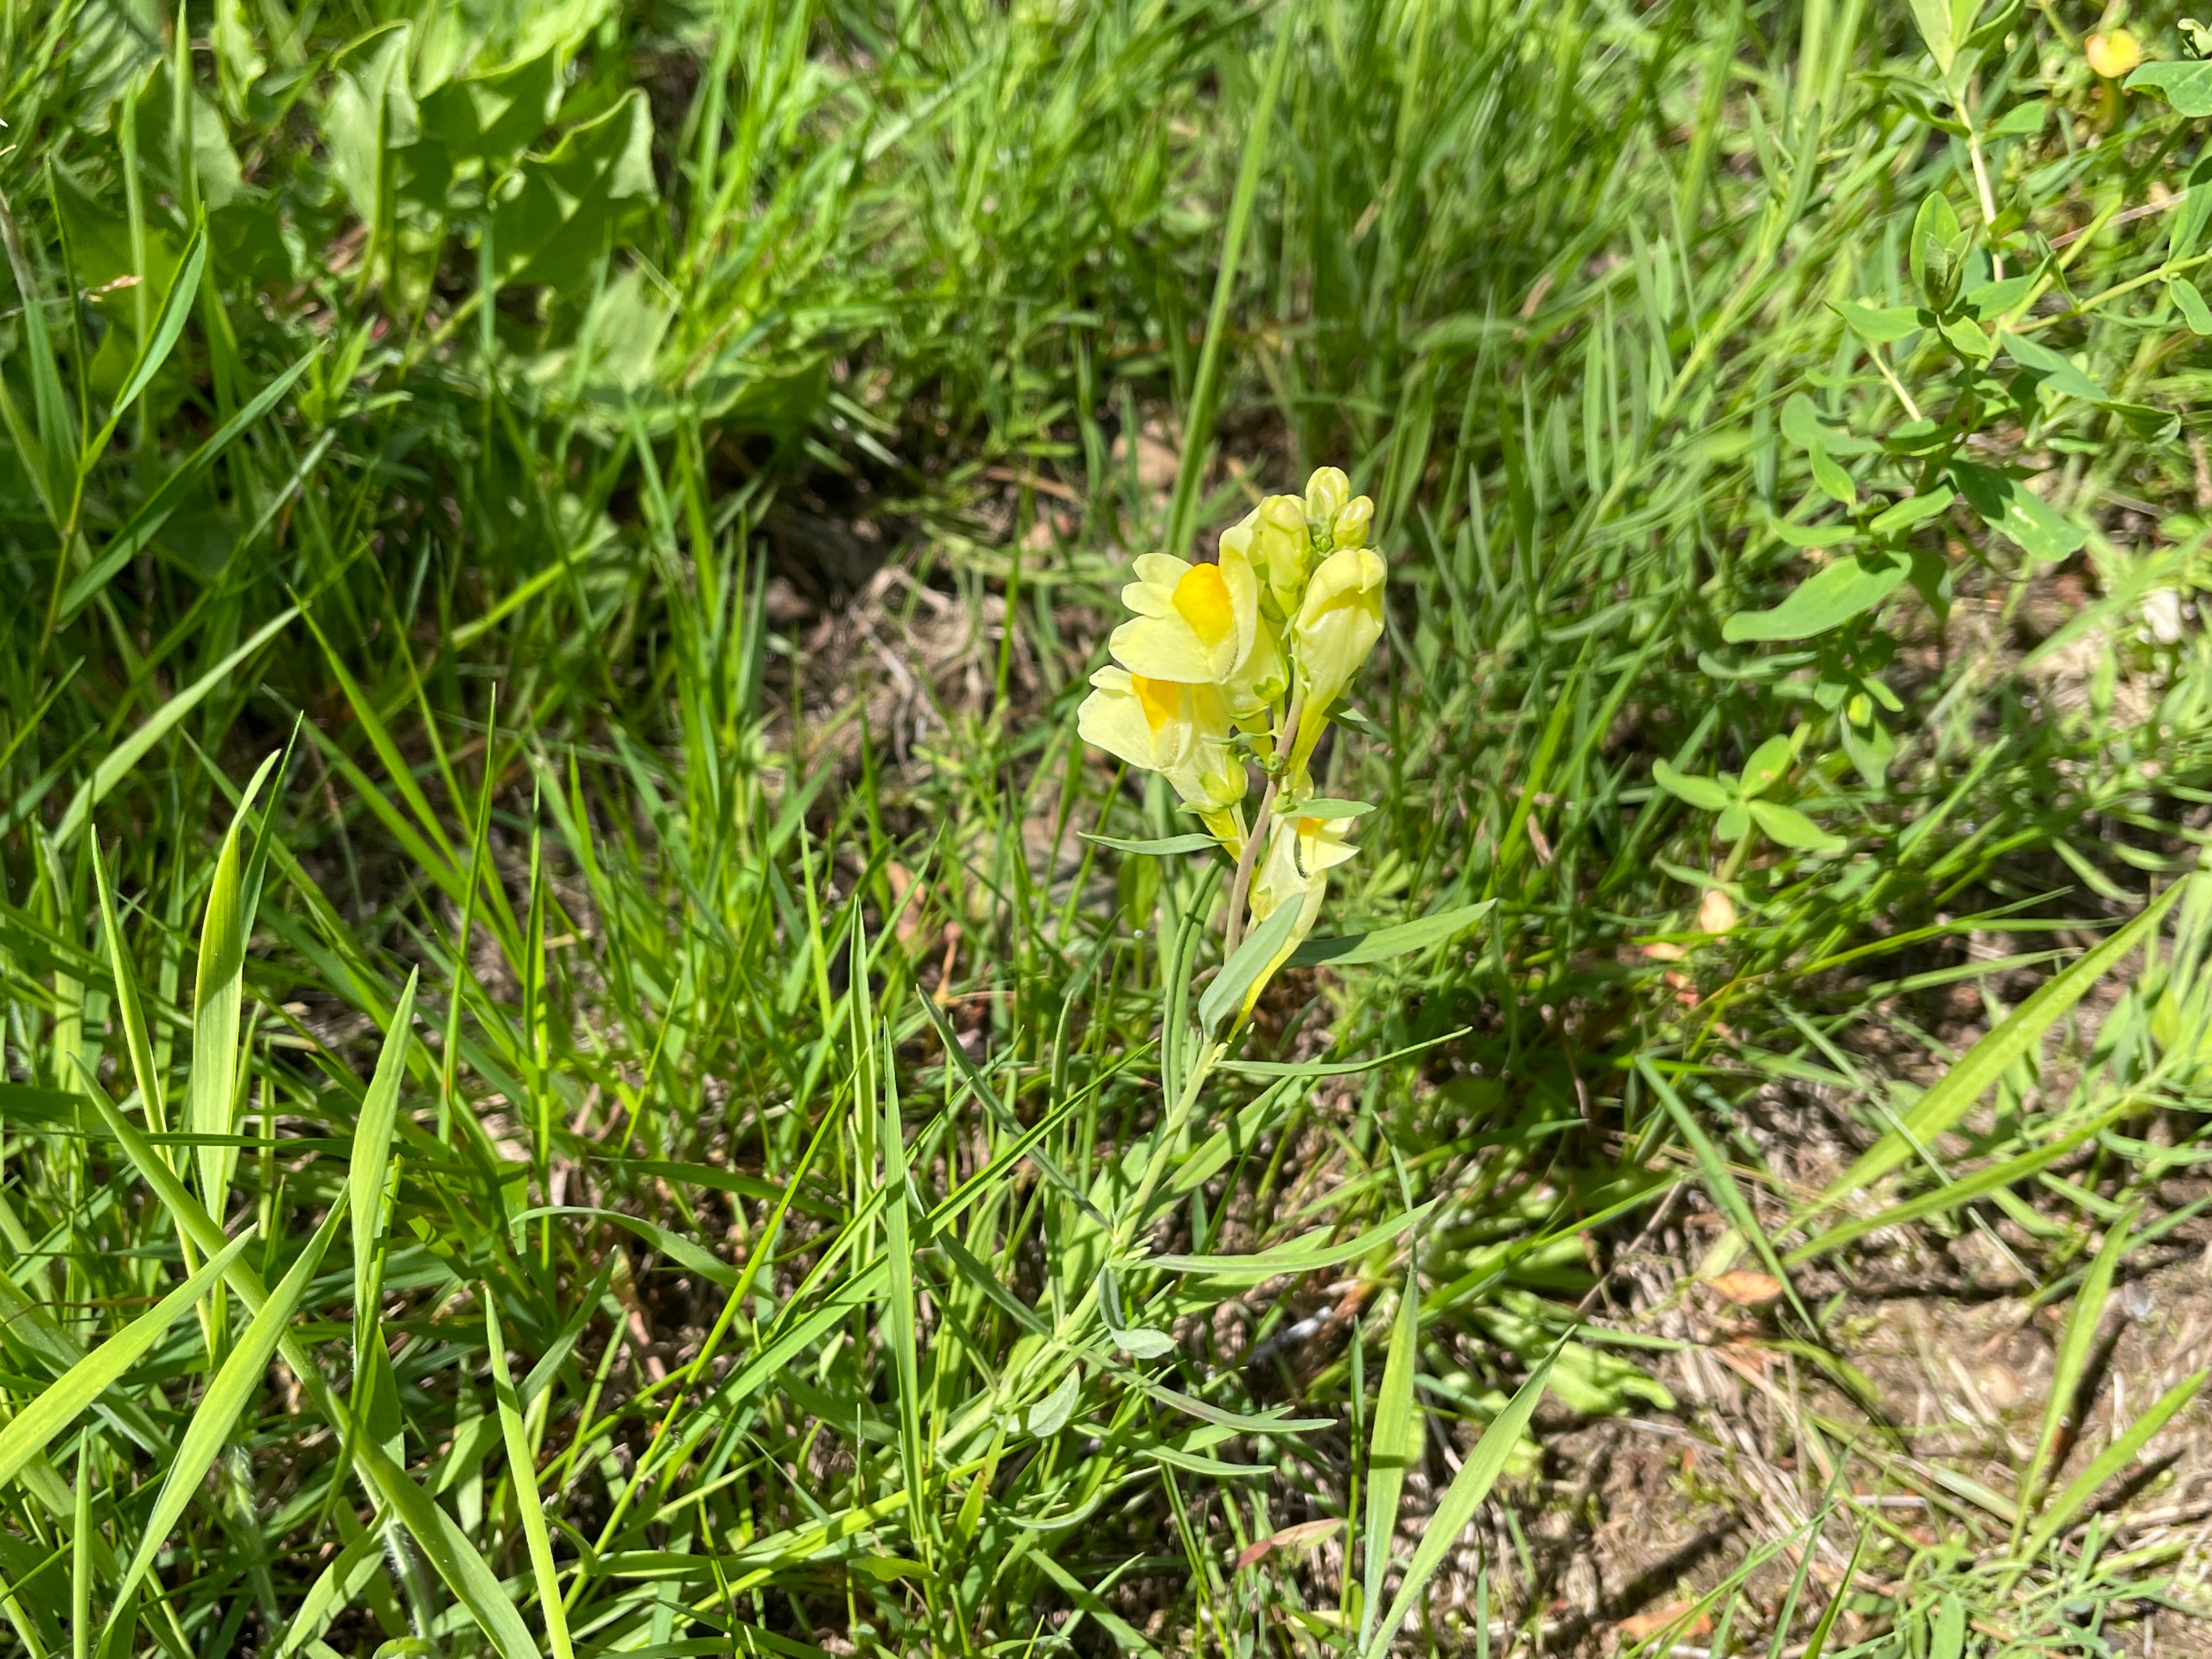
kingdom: Plantae
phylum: Tracheophyta
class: Magnoliopsida
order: Lamiales
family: Plantaginaceae
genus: Linaria
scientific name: Linaria vulgaris
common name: Almindelig torskemund
